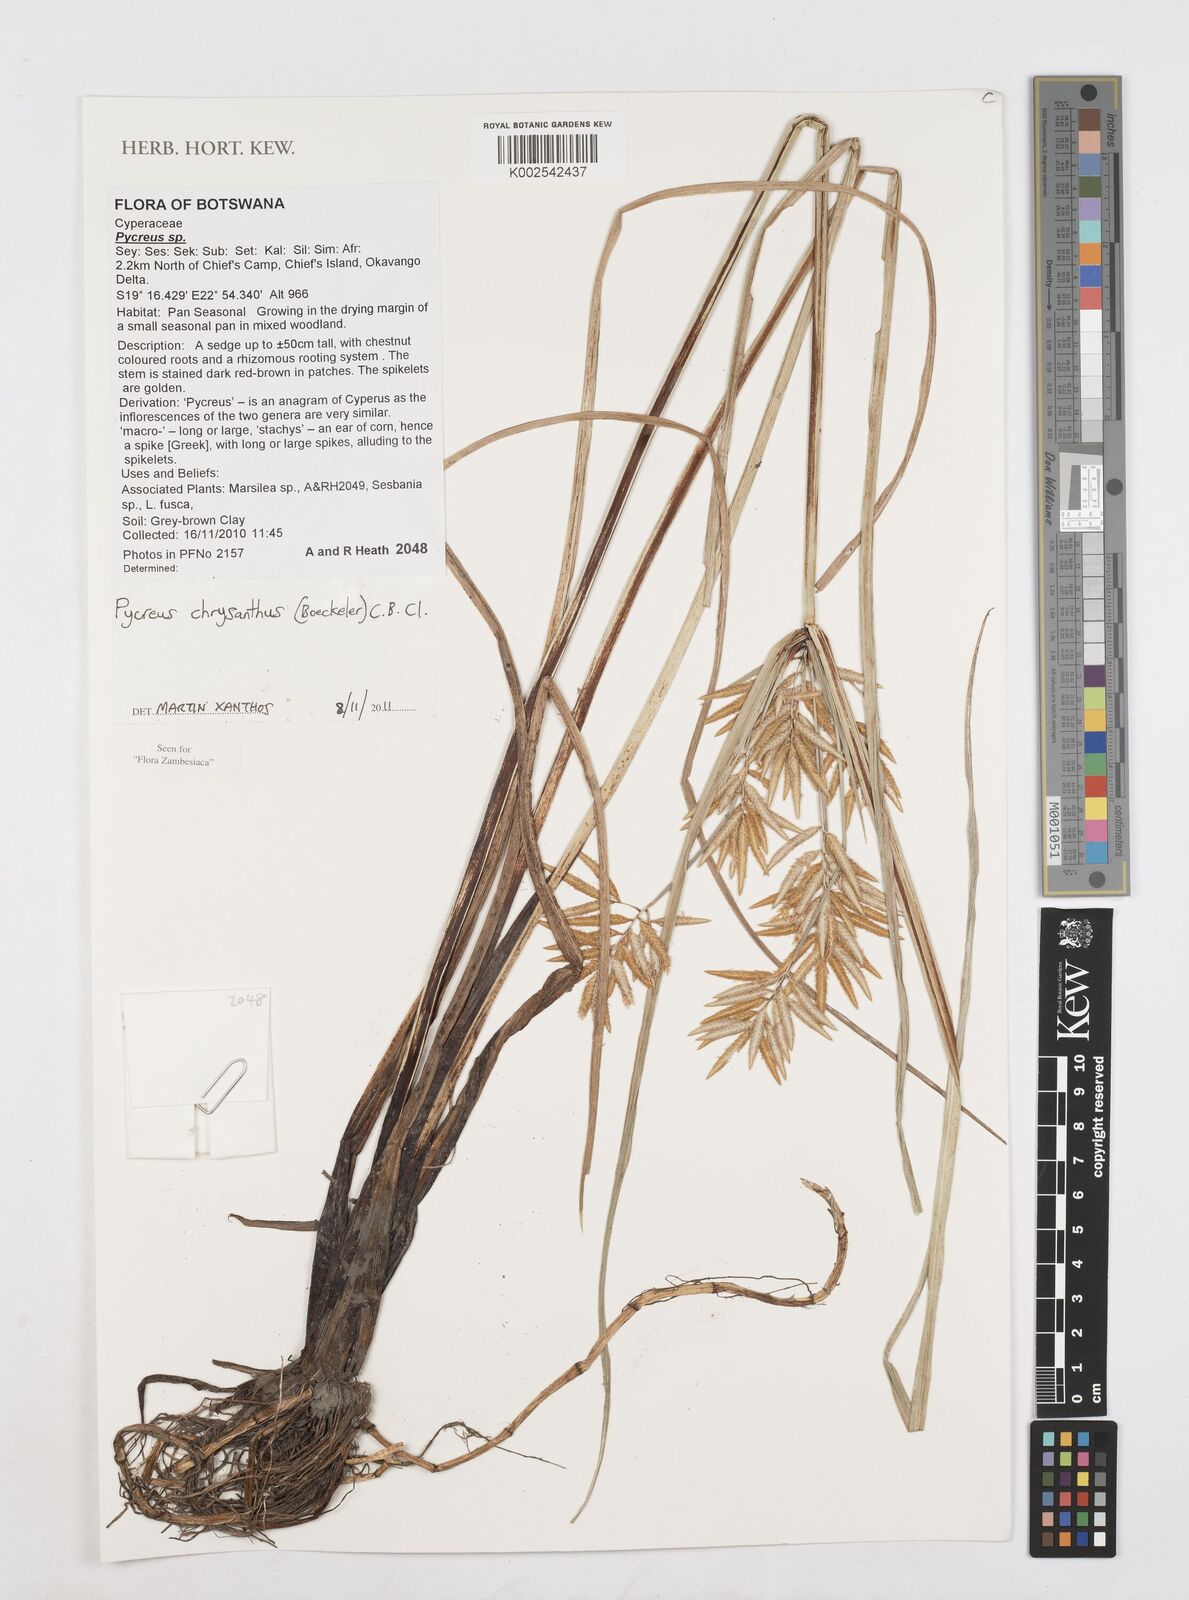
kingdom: Plantae
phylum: Tracheophyta
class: Liliopsida
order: Poales
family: Cyperaceae
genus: Cyperus
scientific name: Cyperus chrysanthus
